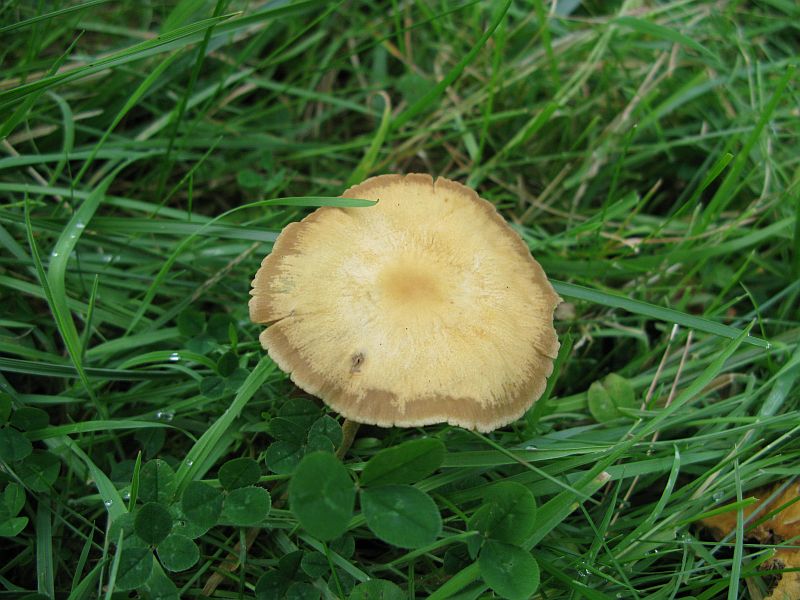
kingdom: Fungi
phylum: Basidiomycota
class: Agaricomycetes
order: Agaricales
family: Strophariaceae
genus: Agrocybe
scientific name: Agrocybe arvalis
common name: rodslående agerhat
